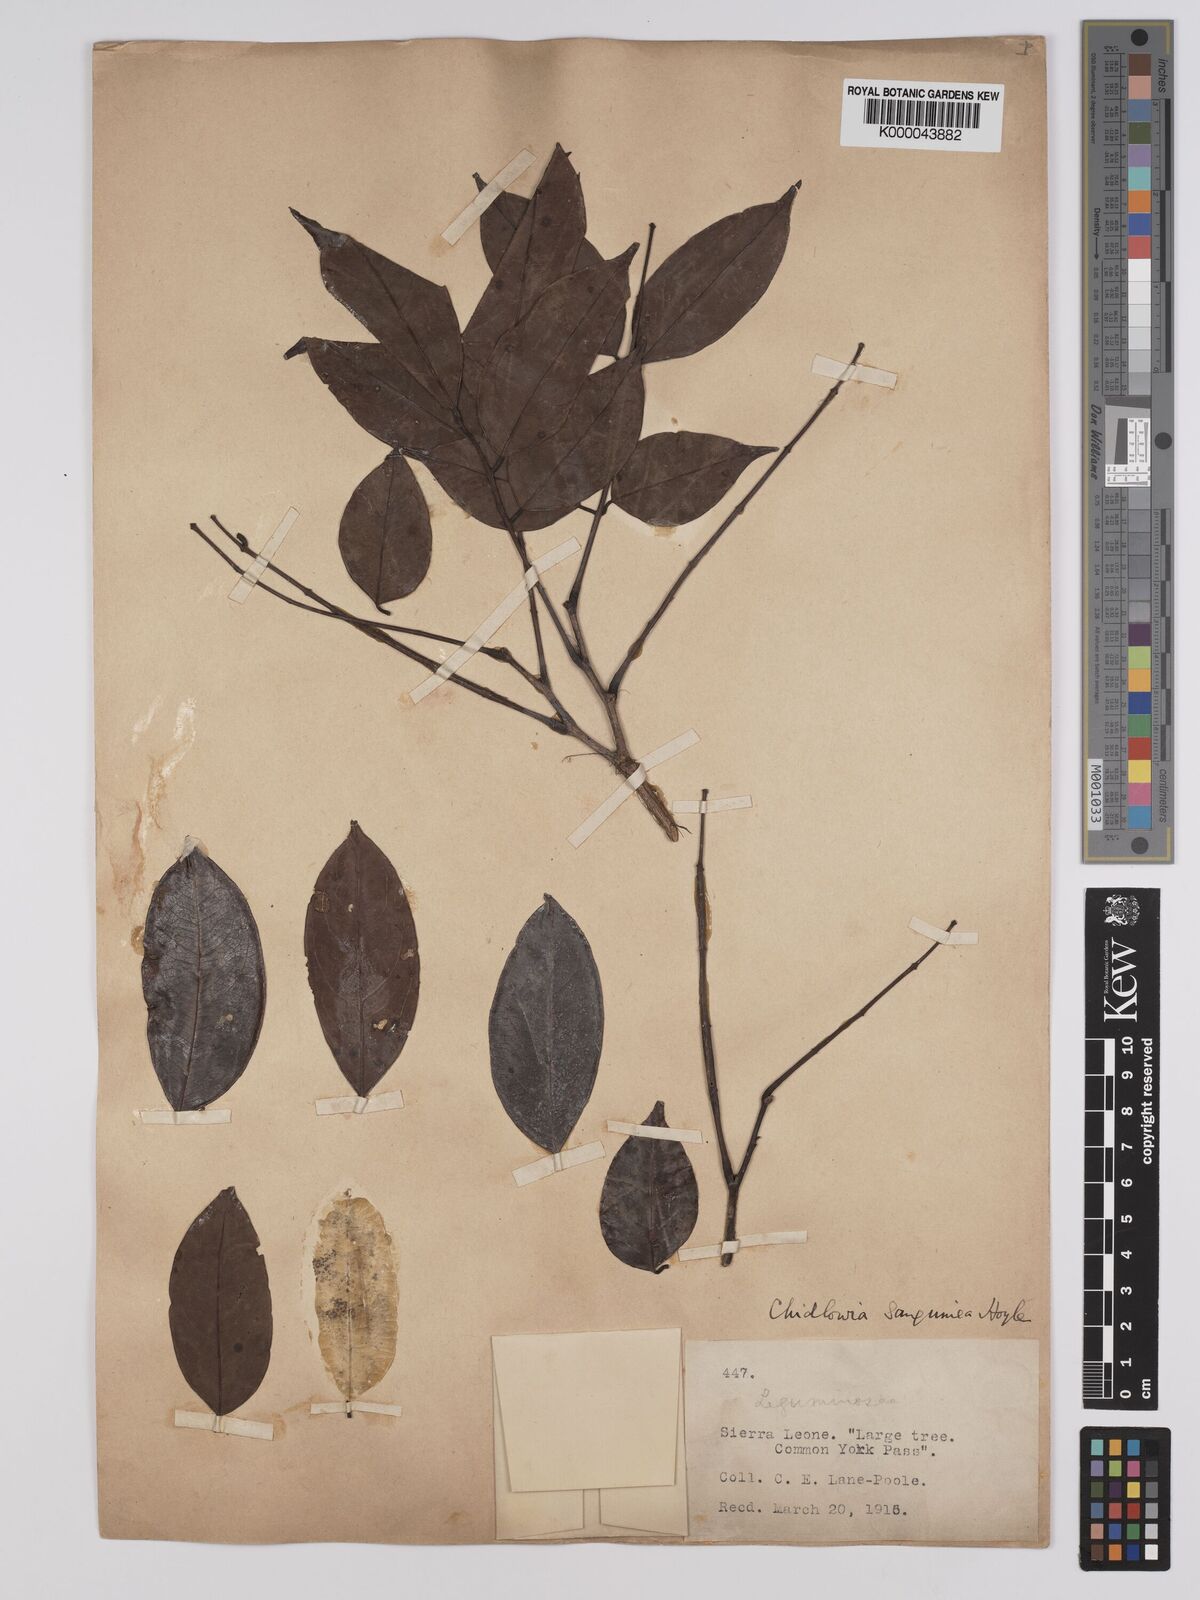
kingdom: Plantae
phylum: Tracheophyta
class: Magnoliopsida
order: Fabales
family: Fabaceae
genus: Chidlowia
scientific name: Chidlowia sanguinea
